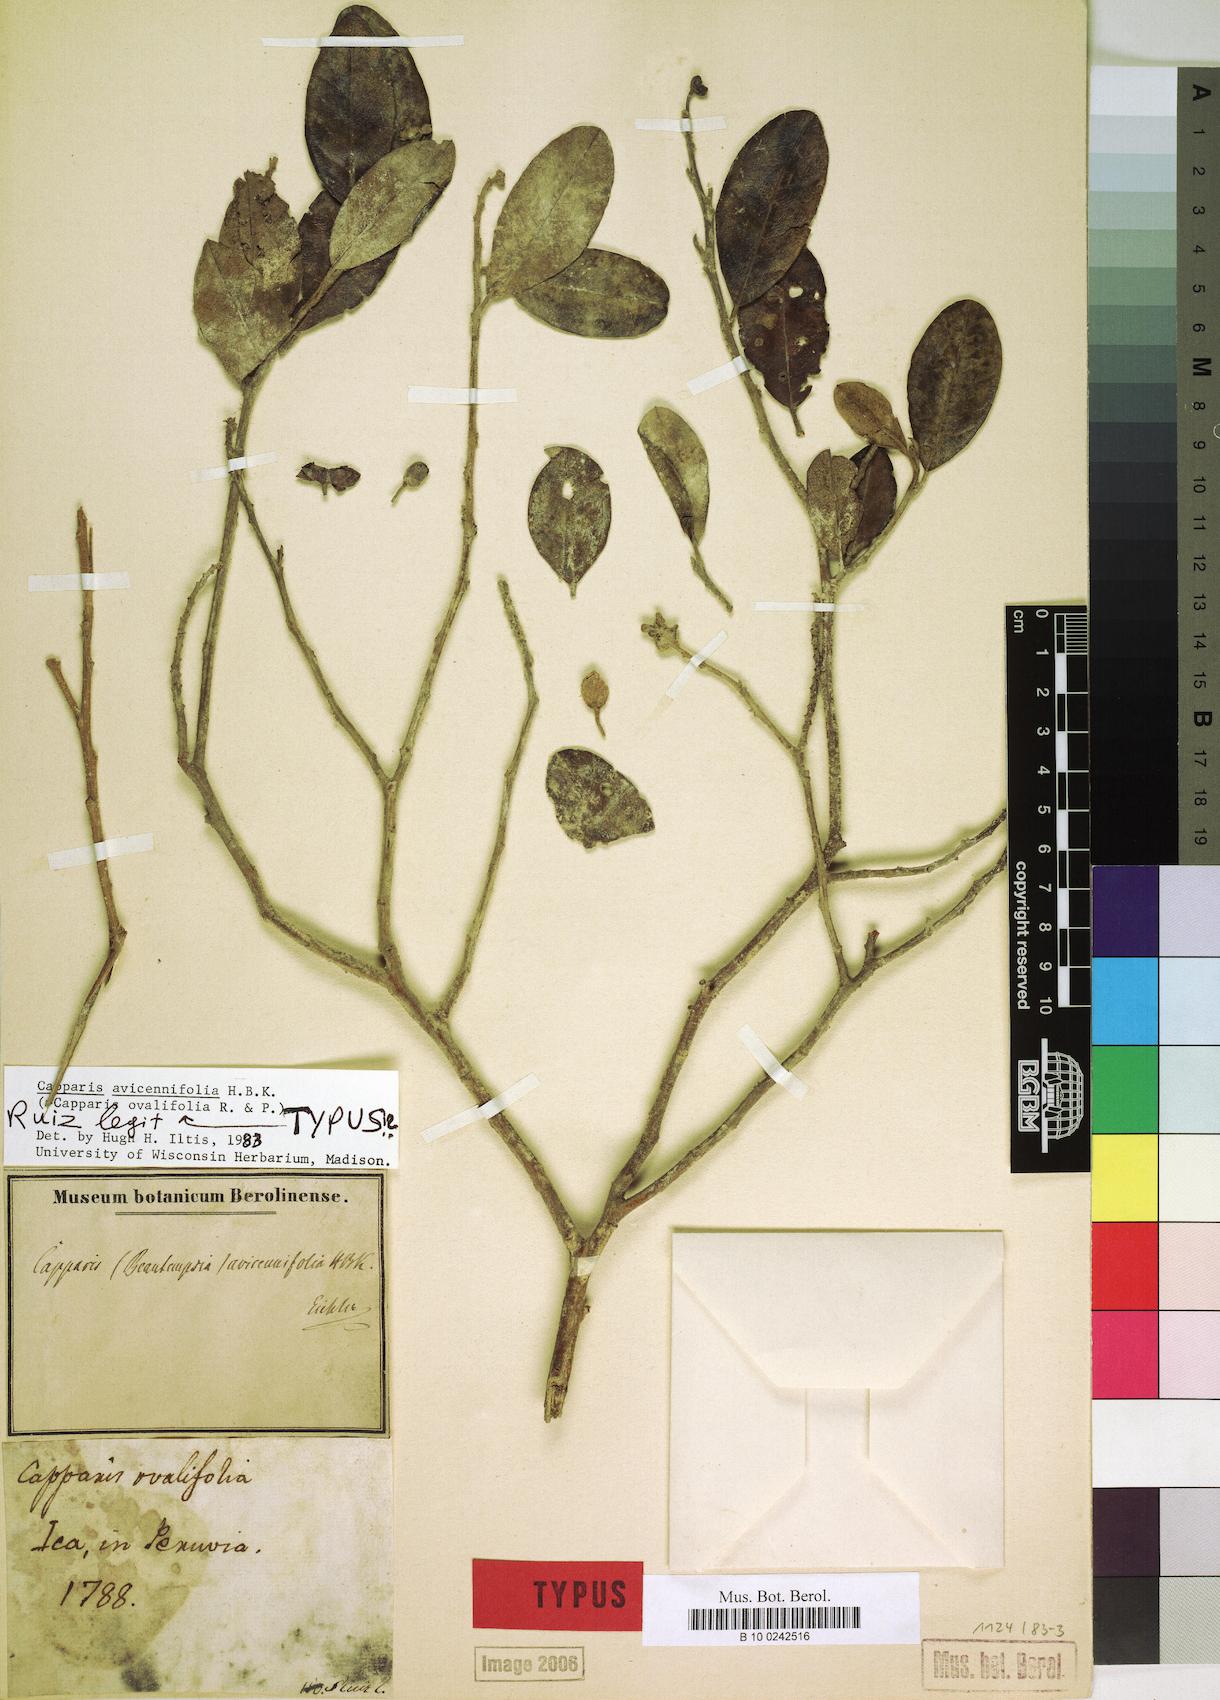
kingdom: Plantae
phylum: Tracheophyta
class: Magnoliopsida
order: Brassicales
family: Capparaceae
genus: Beautempsia
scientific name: Beautempsia avicenniifolia
